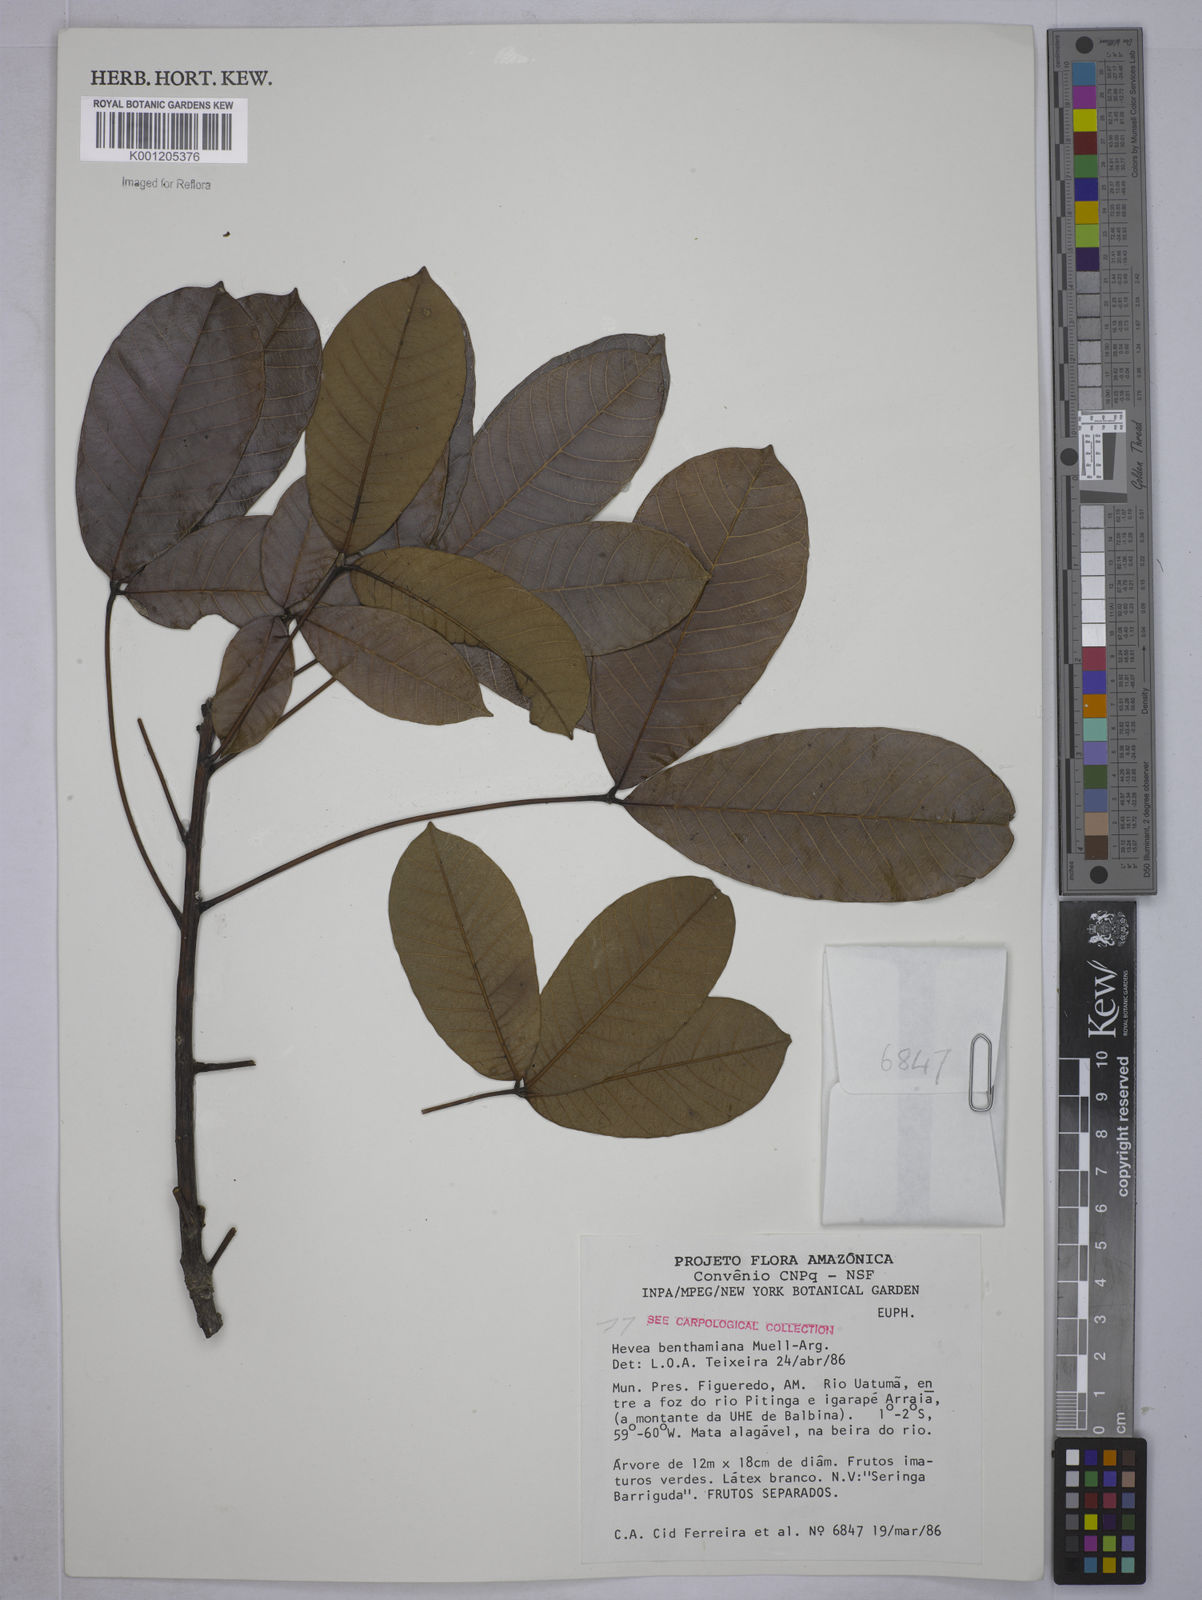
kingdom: Plantae
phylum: Tracheophyta
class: Magnoliopsida
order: Malpighiales
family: Euphorbiaceae
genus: Hevea
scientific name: Hevea
